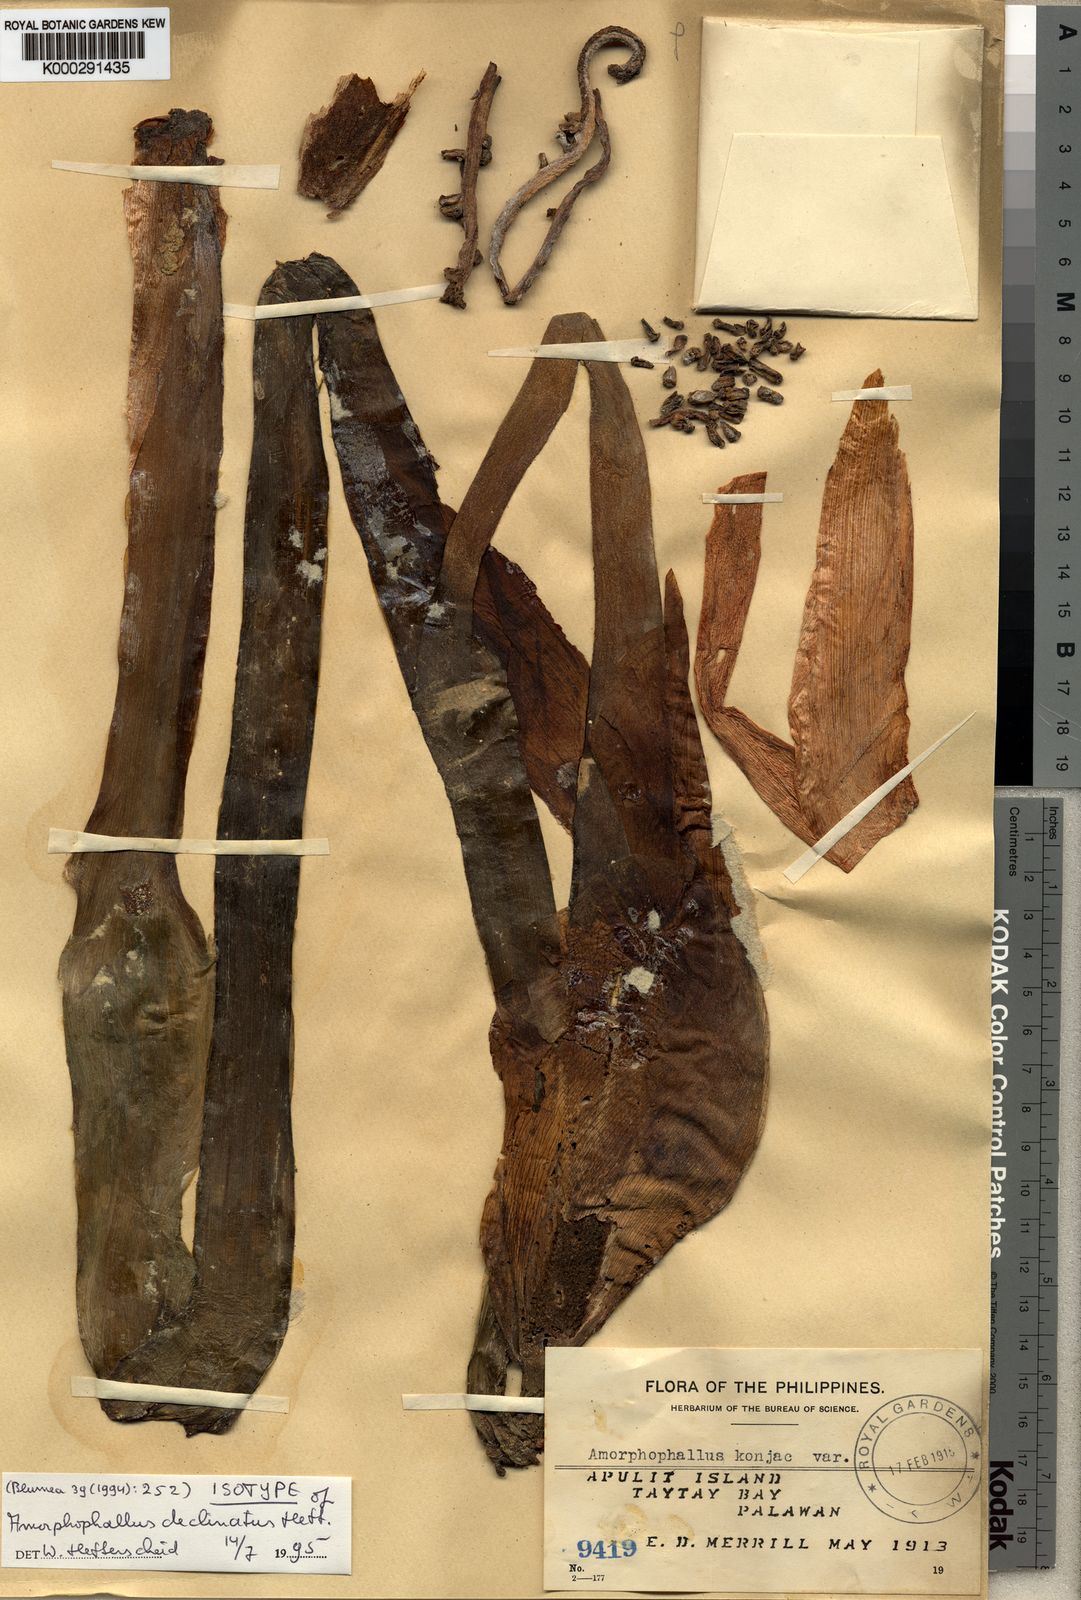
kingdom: Plantae
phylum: Tracheophyta
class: Liliopsida
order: Alismatales
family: Araceae
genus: Amorphophallus
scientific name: Amorphophallus declinatus
